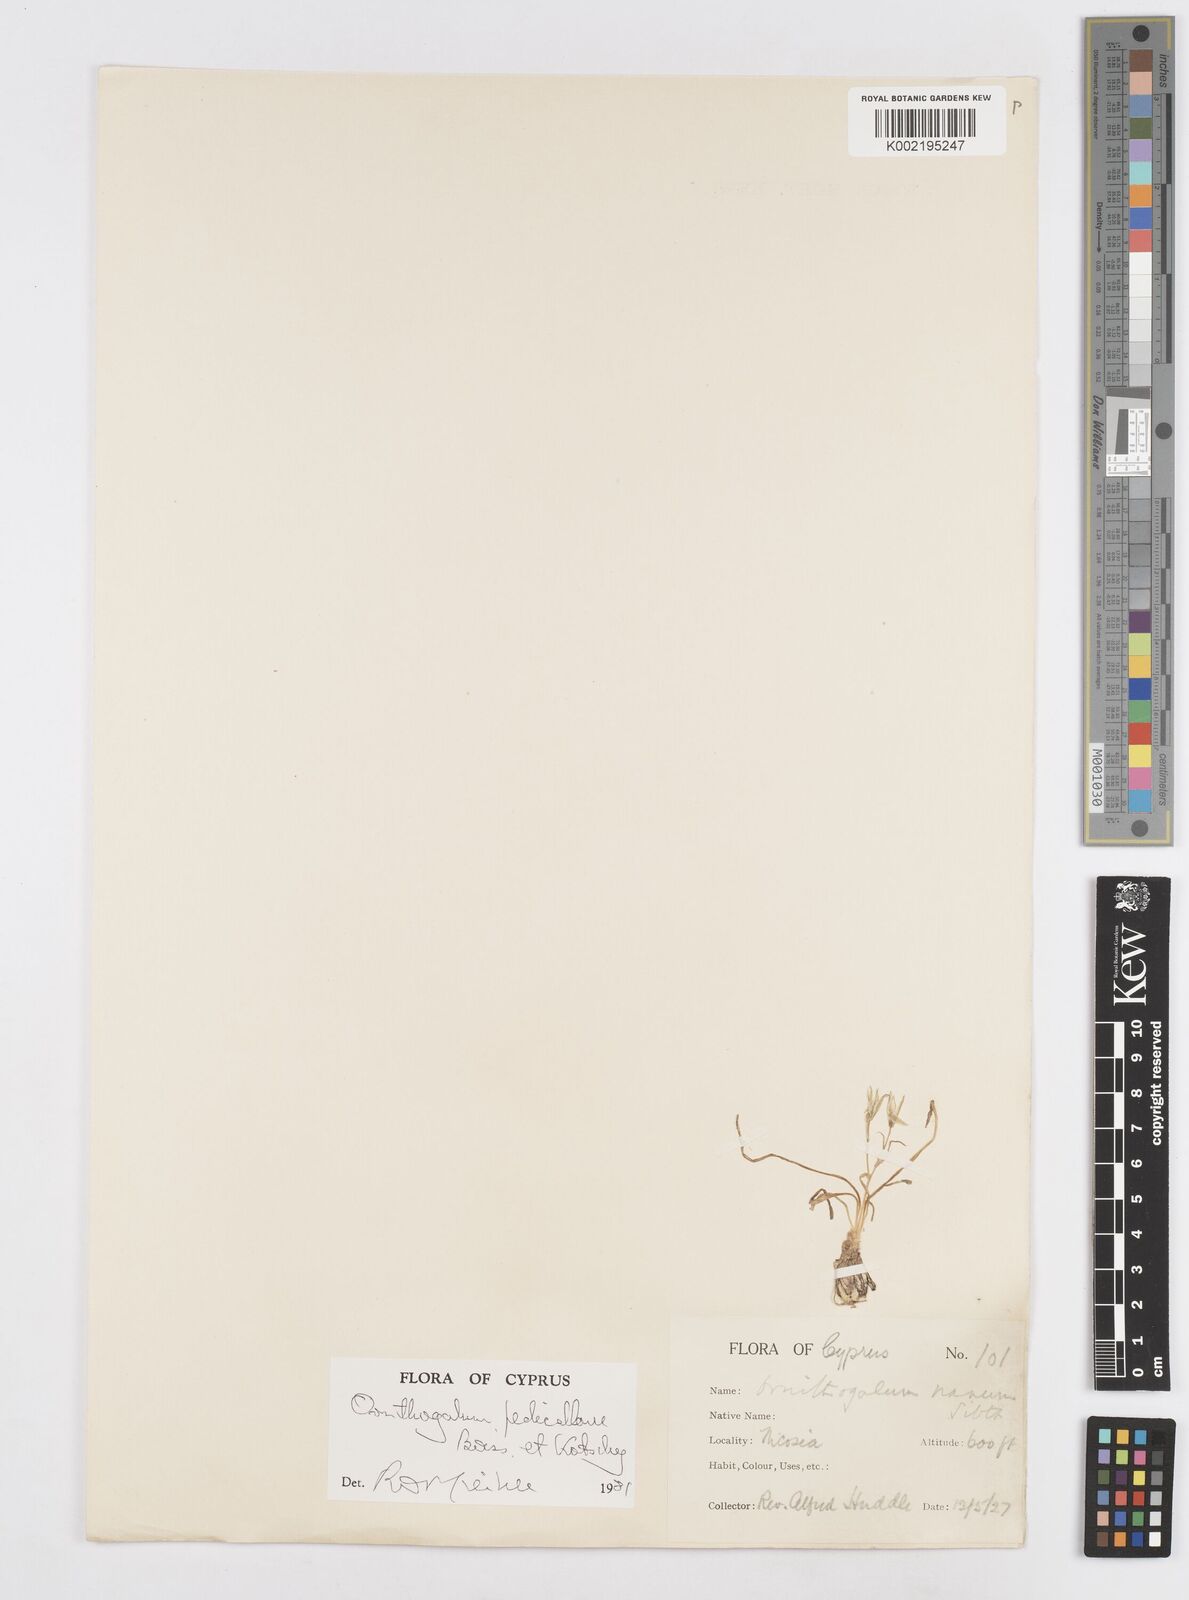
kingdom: Plantae
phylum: Tracheophyta
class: Liliopsida
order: Asparagales
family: Asparagaceae
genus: Ornithogalum
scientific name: Ornithogalum pedicellare
